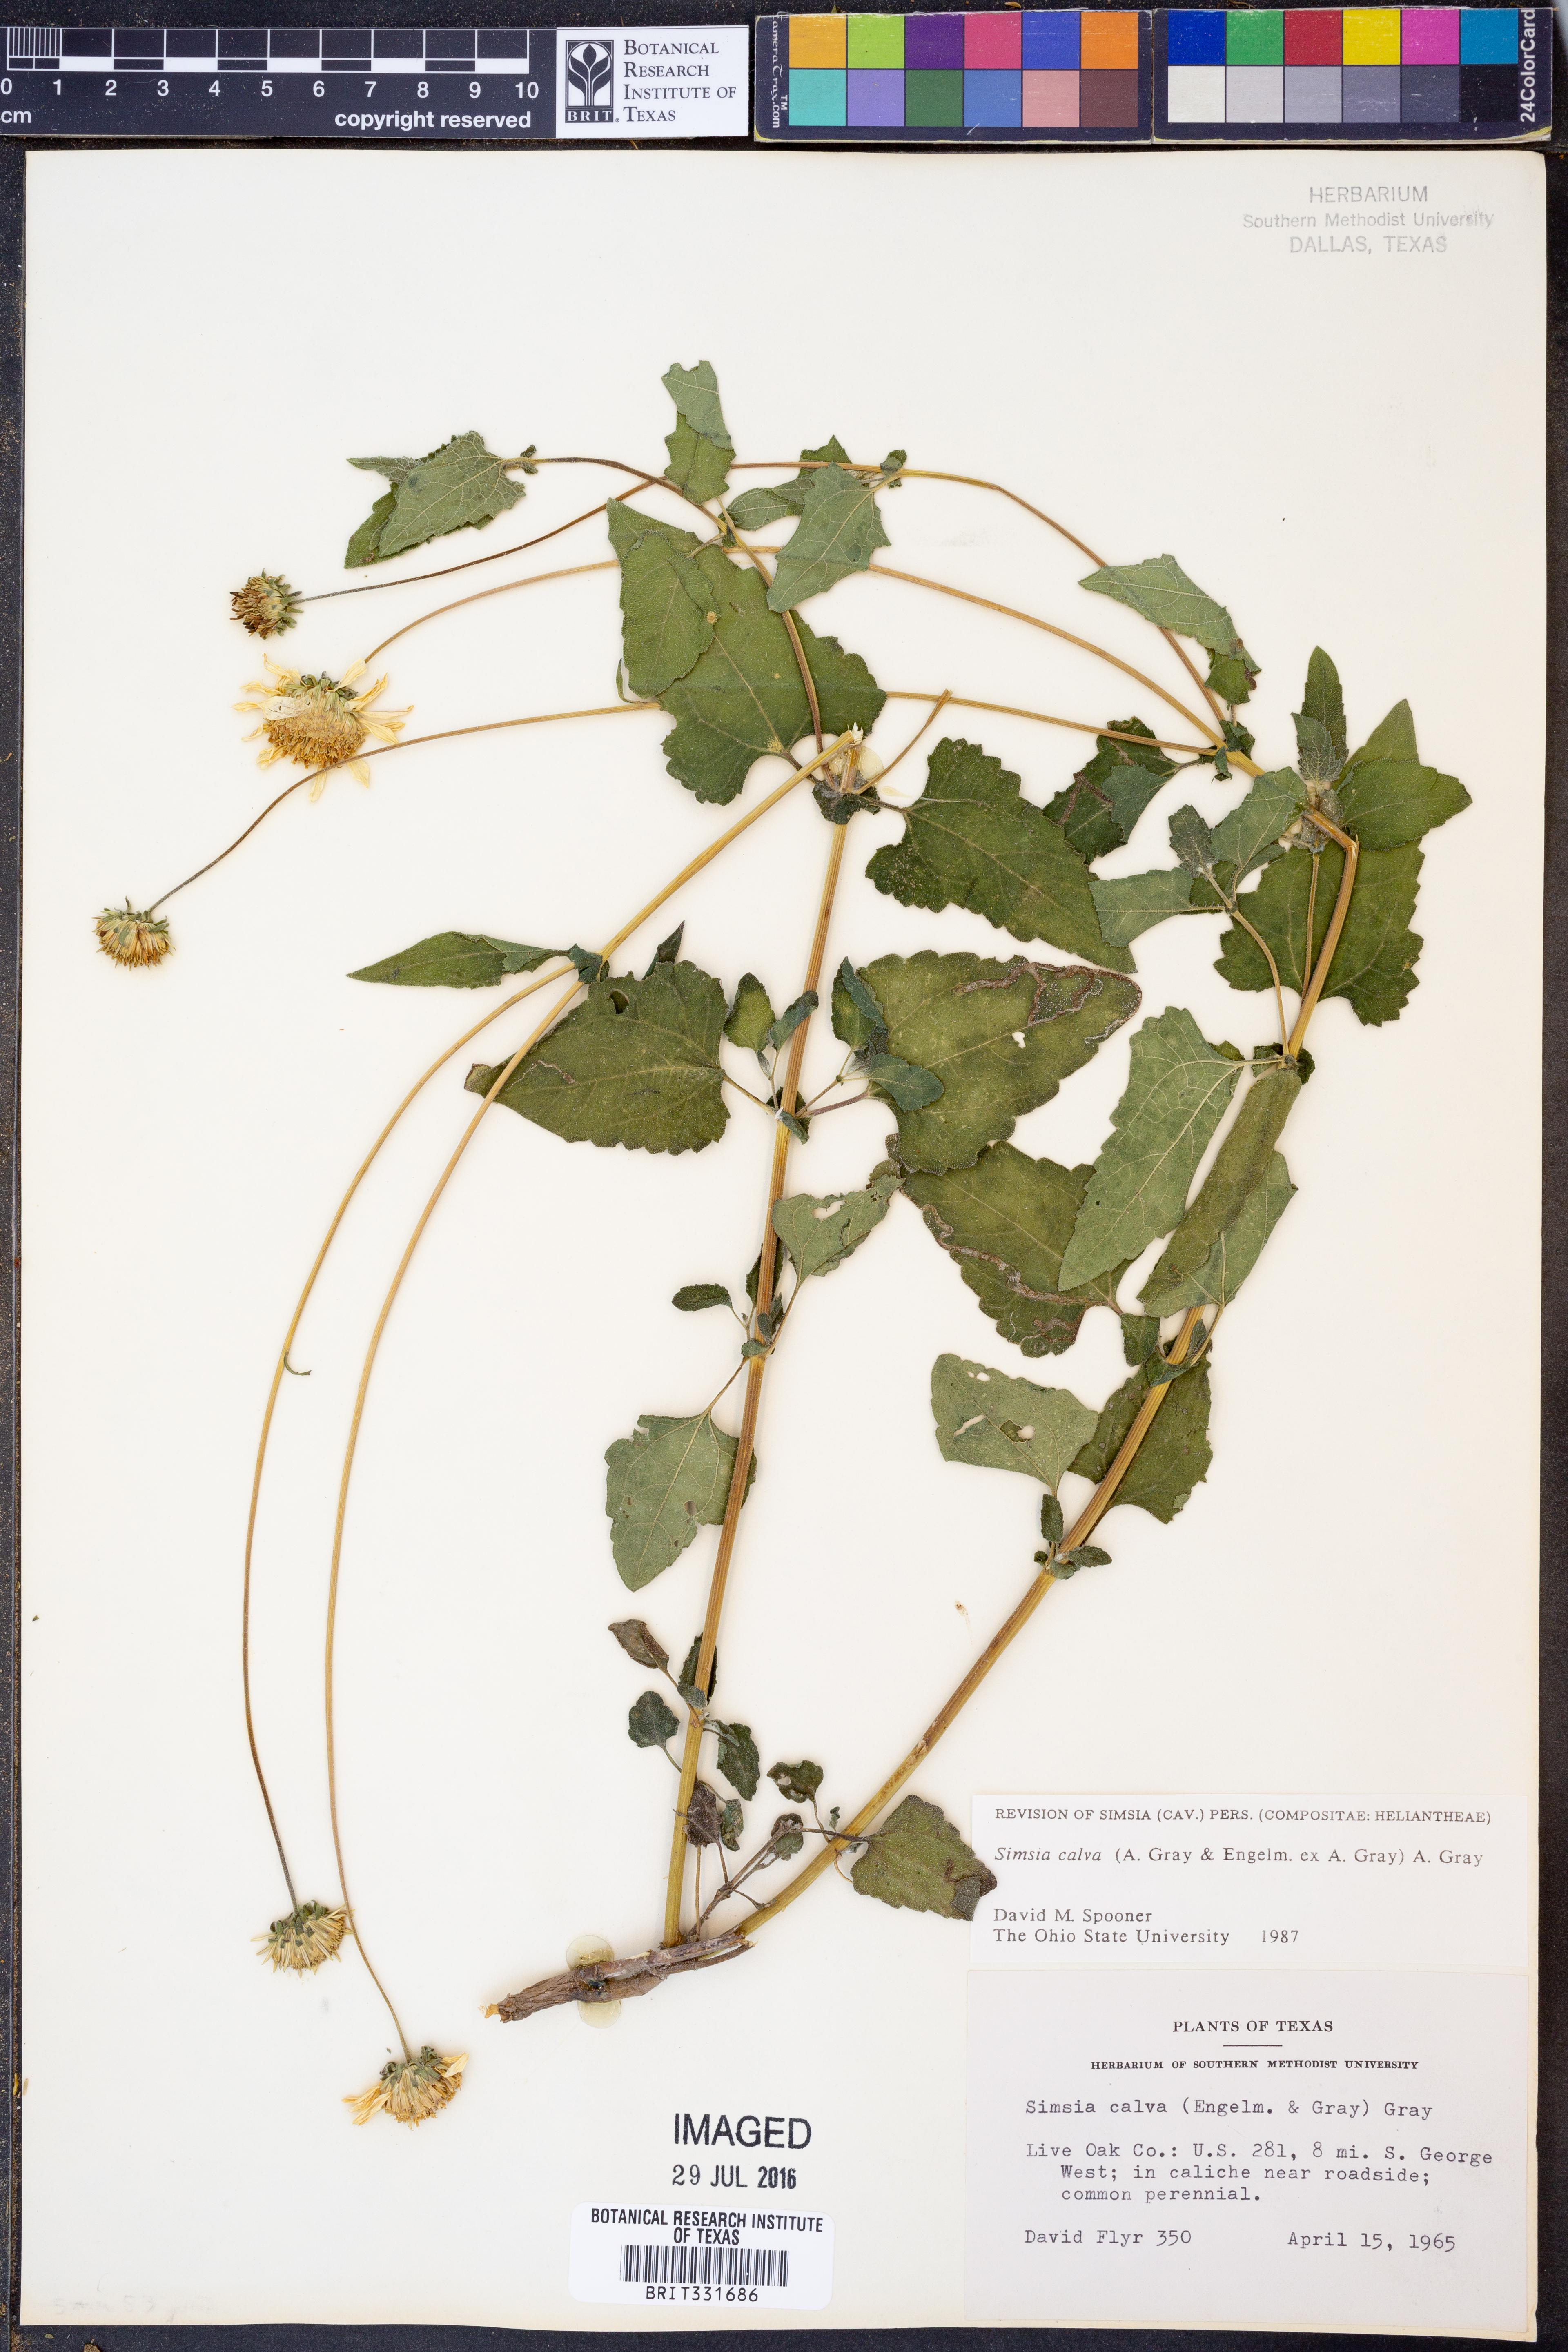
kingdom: Plantae
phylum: Tracheophyta
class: Magnoliopsida
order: Asterales
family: Asteraceae
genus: Simsia
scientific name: Simsia calva
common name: Awnless bush-sunflower
